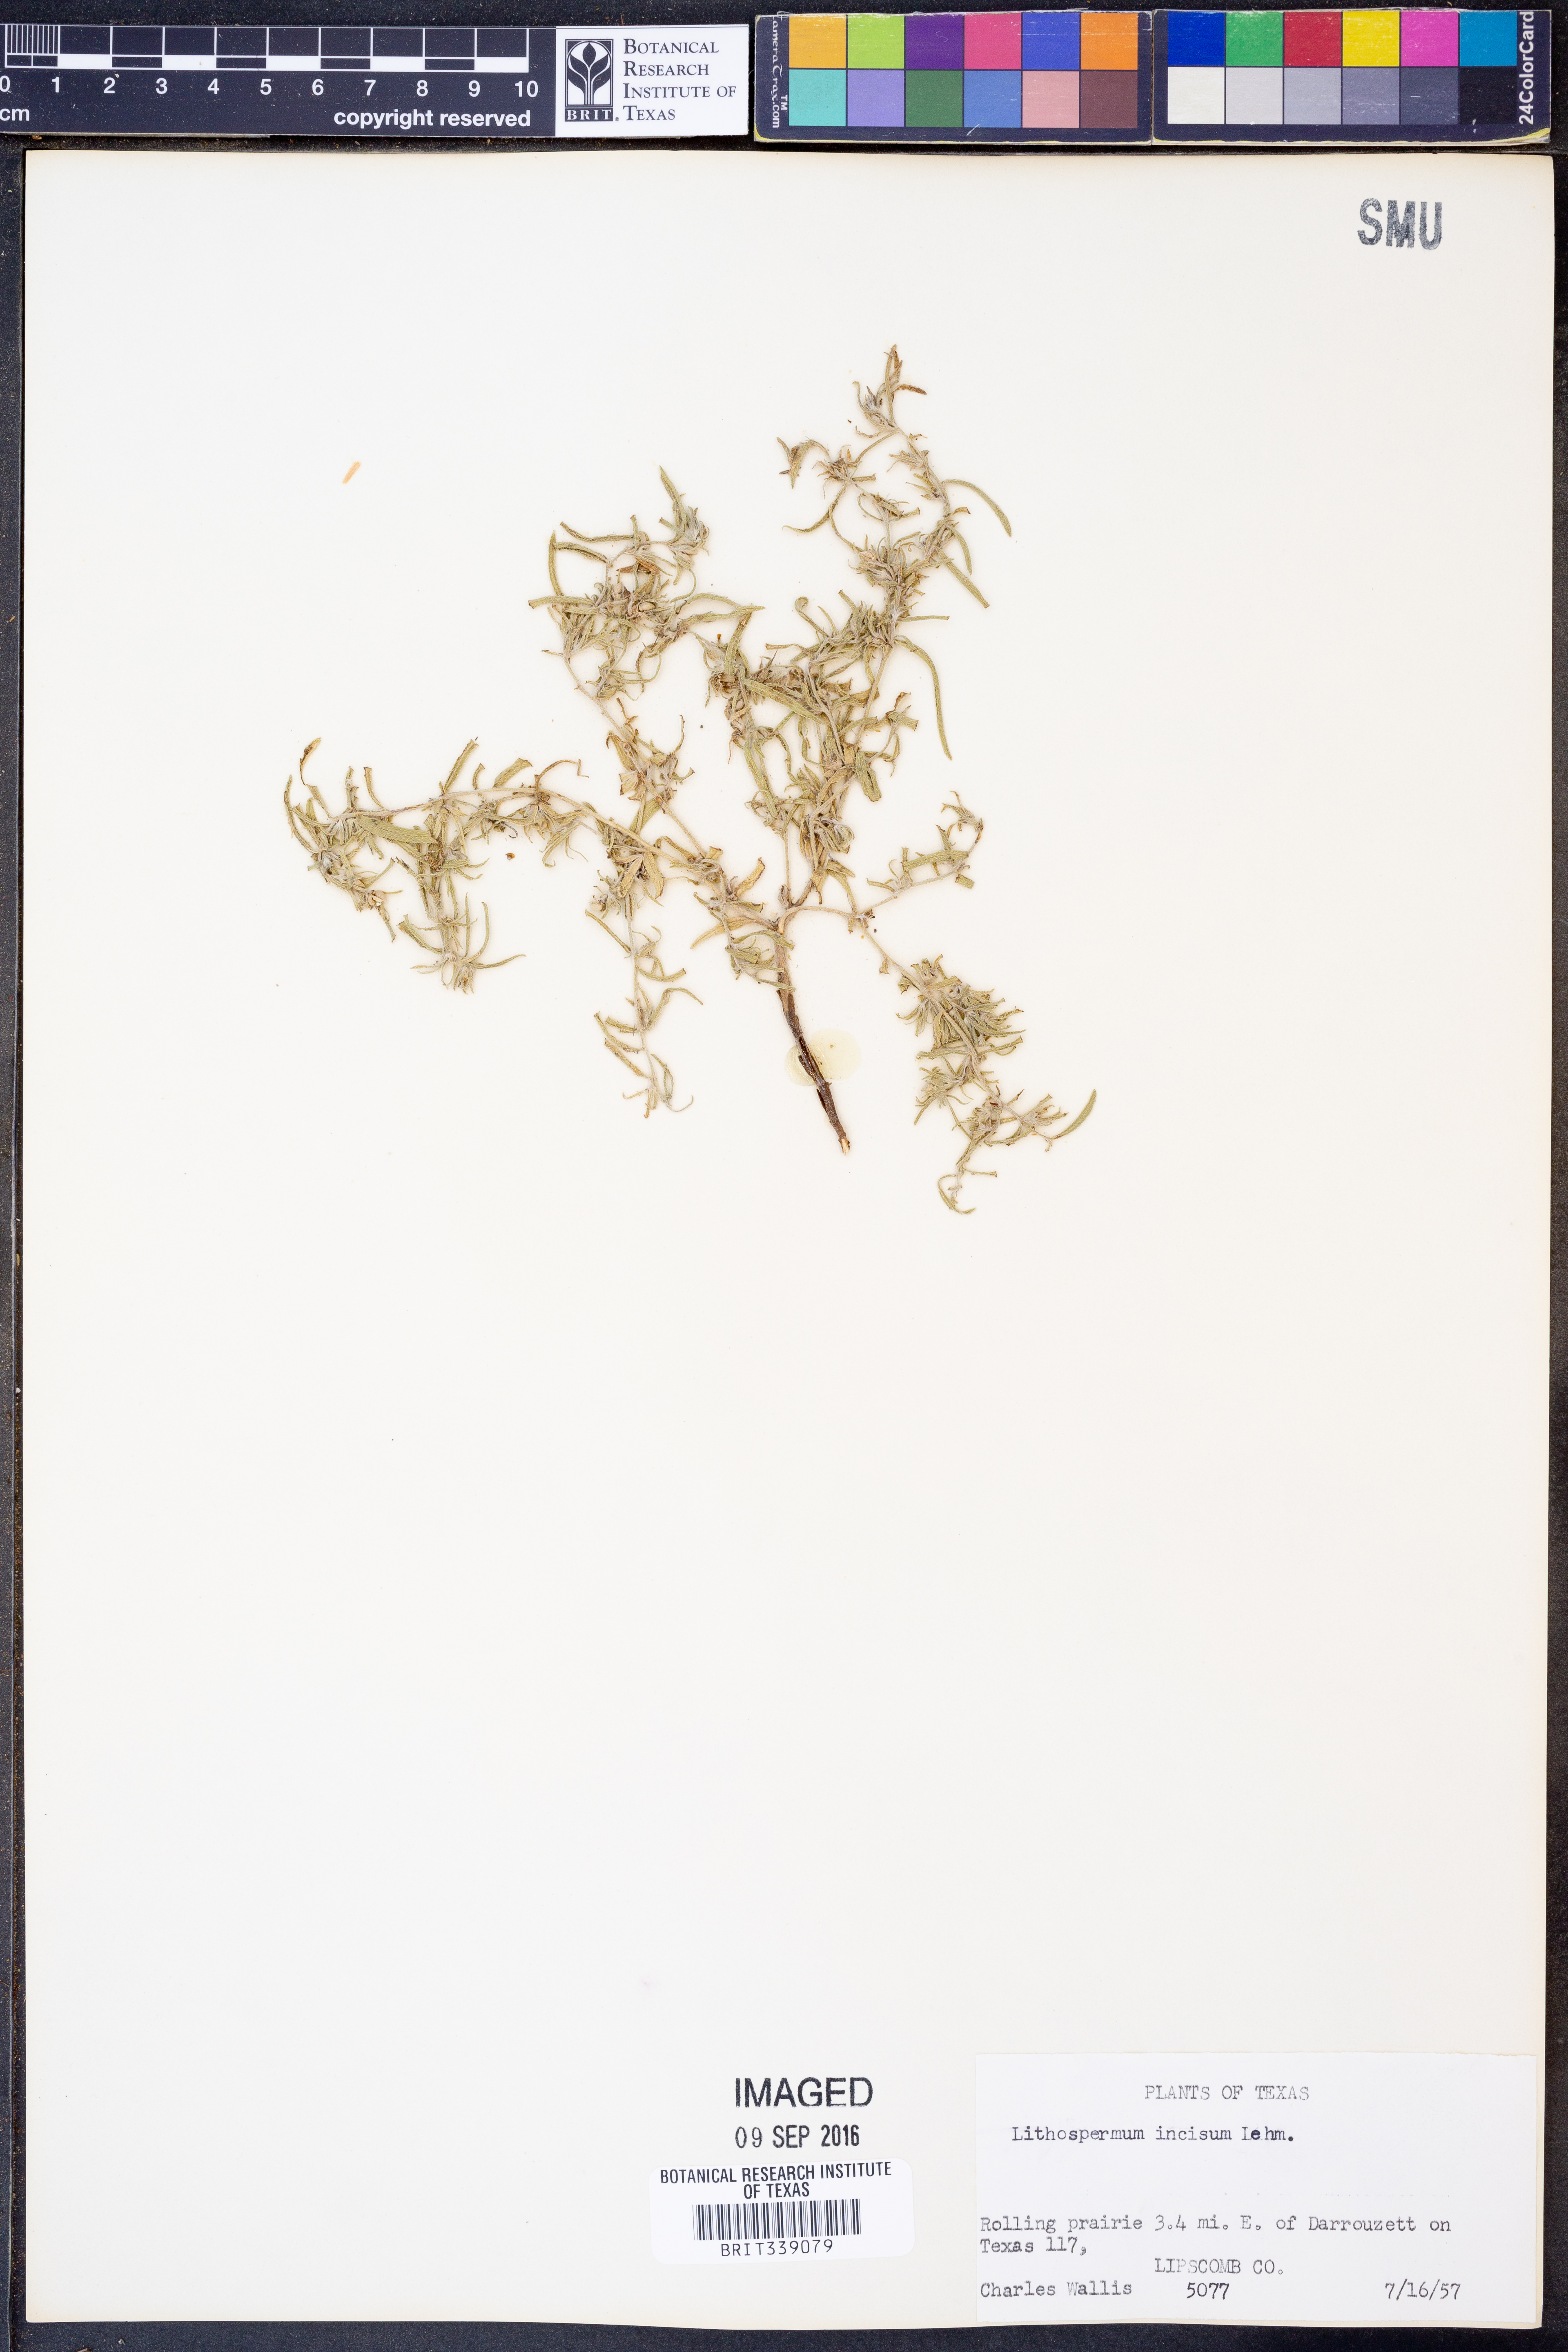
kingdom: Plantae
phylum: Tracheophyta
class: Magnoliopsida
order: Boraginales
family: Boraginaceae
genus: Lithospermum
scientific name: Lithospermum incisum
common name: Fringed gromwell
